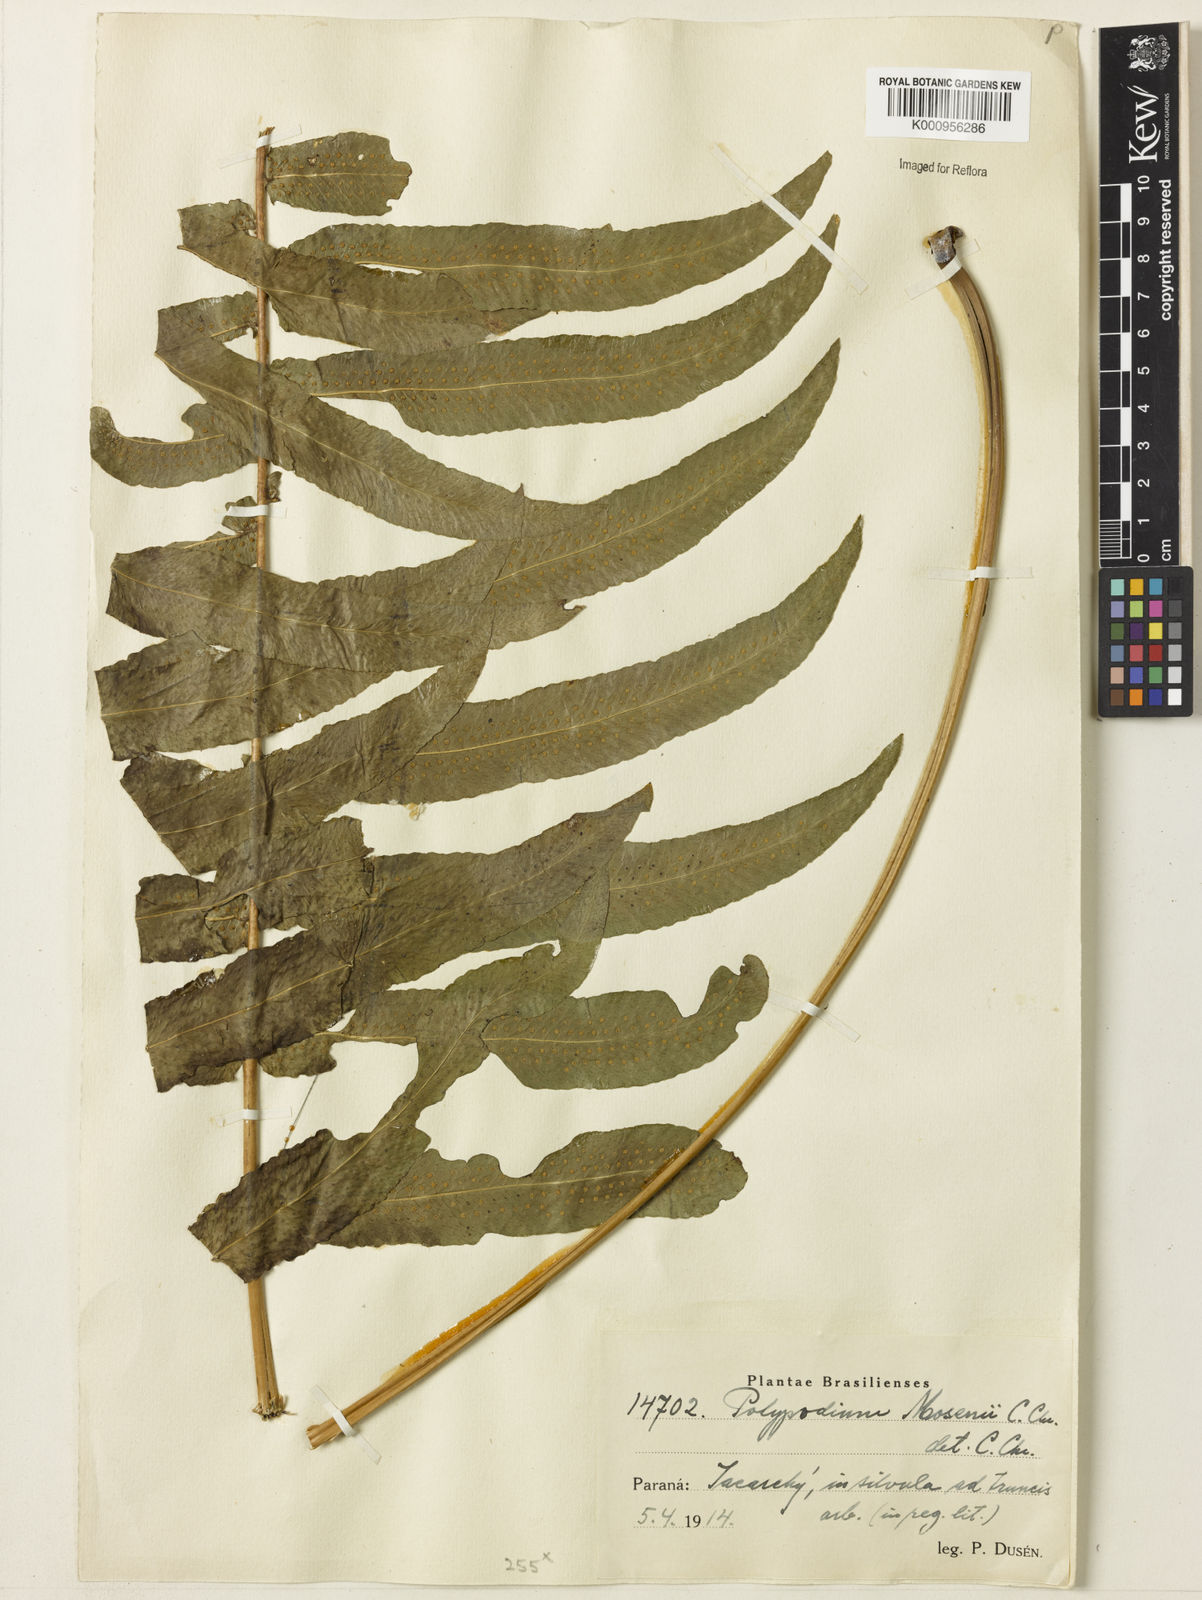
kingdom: Plantae
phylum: Tracheophyta
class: Polypodiopsida
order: Polypodiales
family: Polypodiaceae
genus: Serpocaulon
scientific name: Serpocaulon menisciifolium
